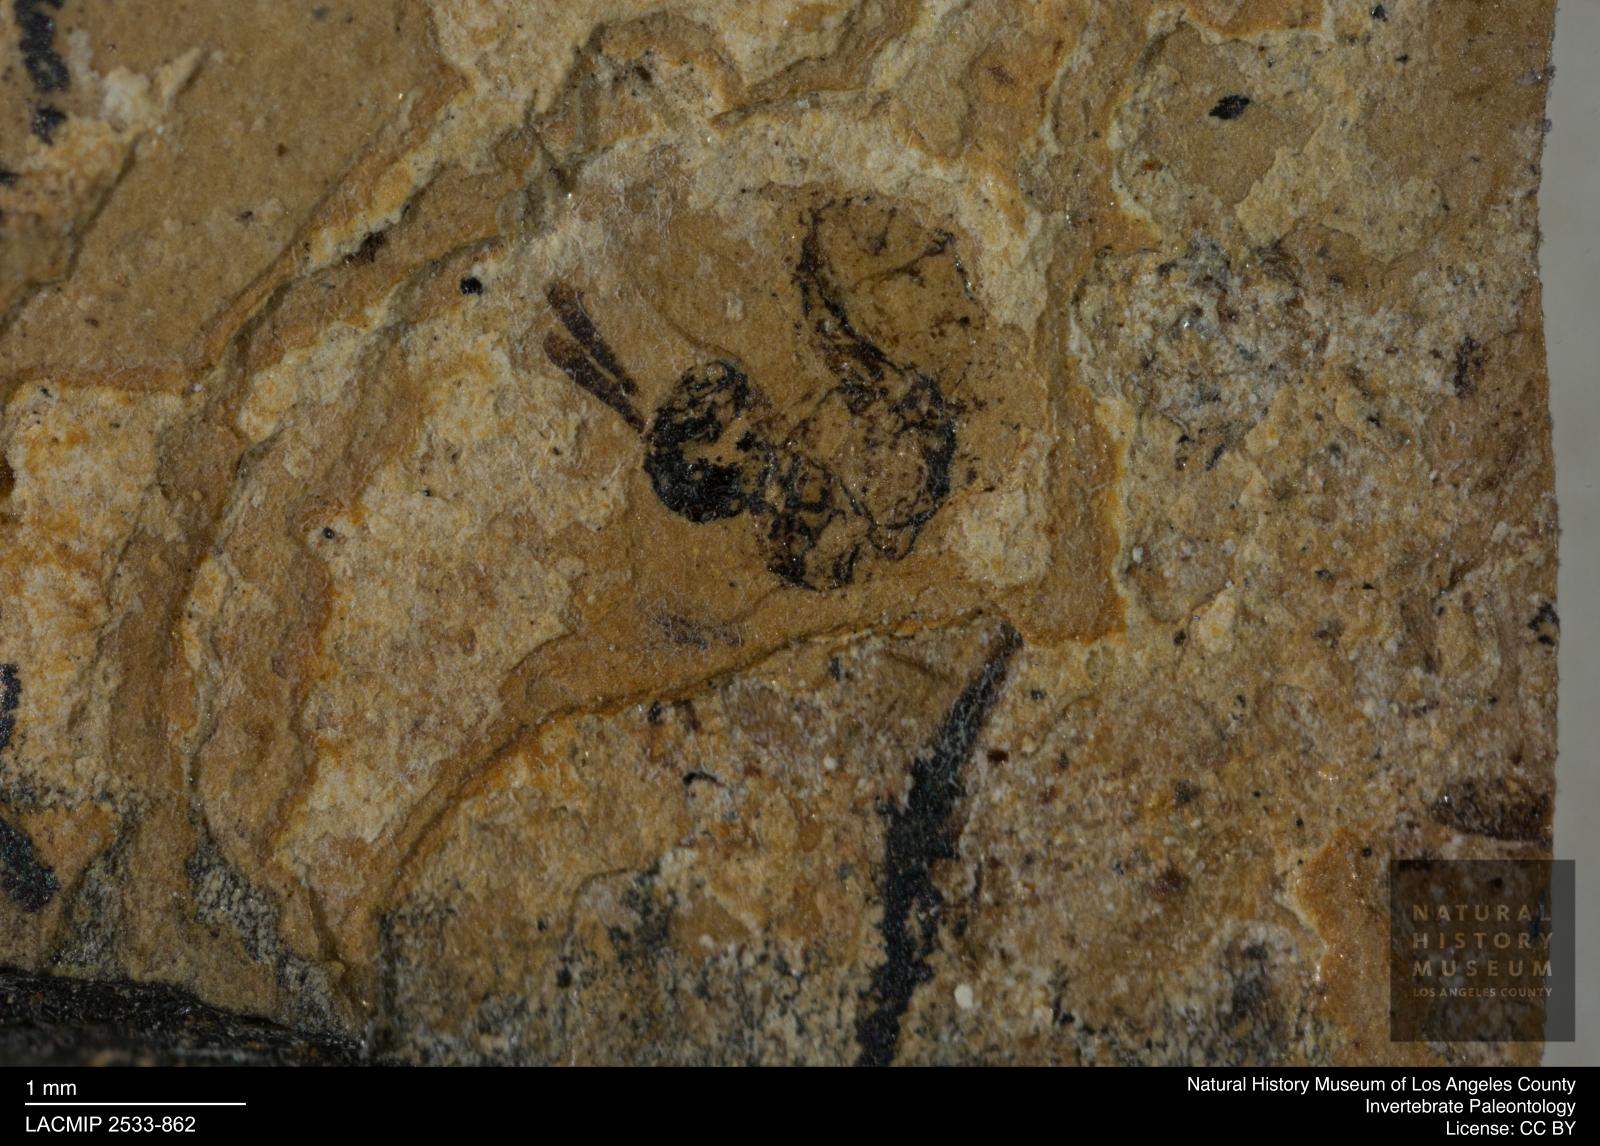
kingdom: Animalia
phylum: Arthropoda
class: Insecta
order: Hymenoptera
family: Pteromalidae
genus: Pteromalus
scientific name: Pteromalus venustus
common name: Wasp
